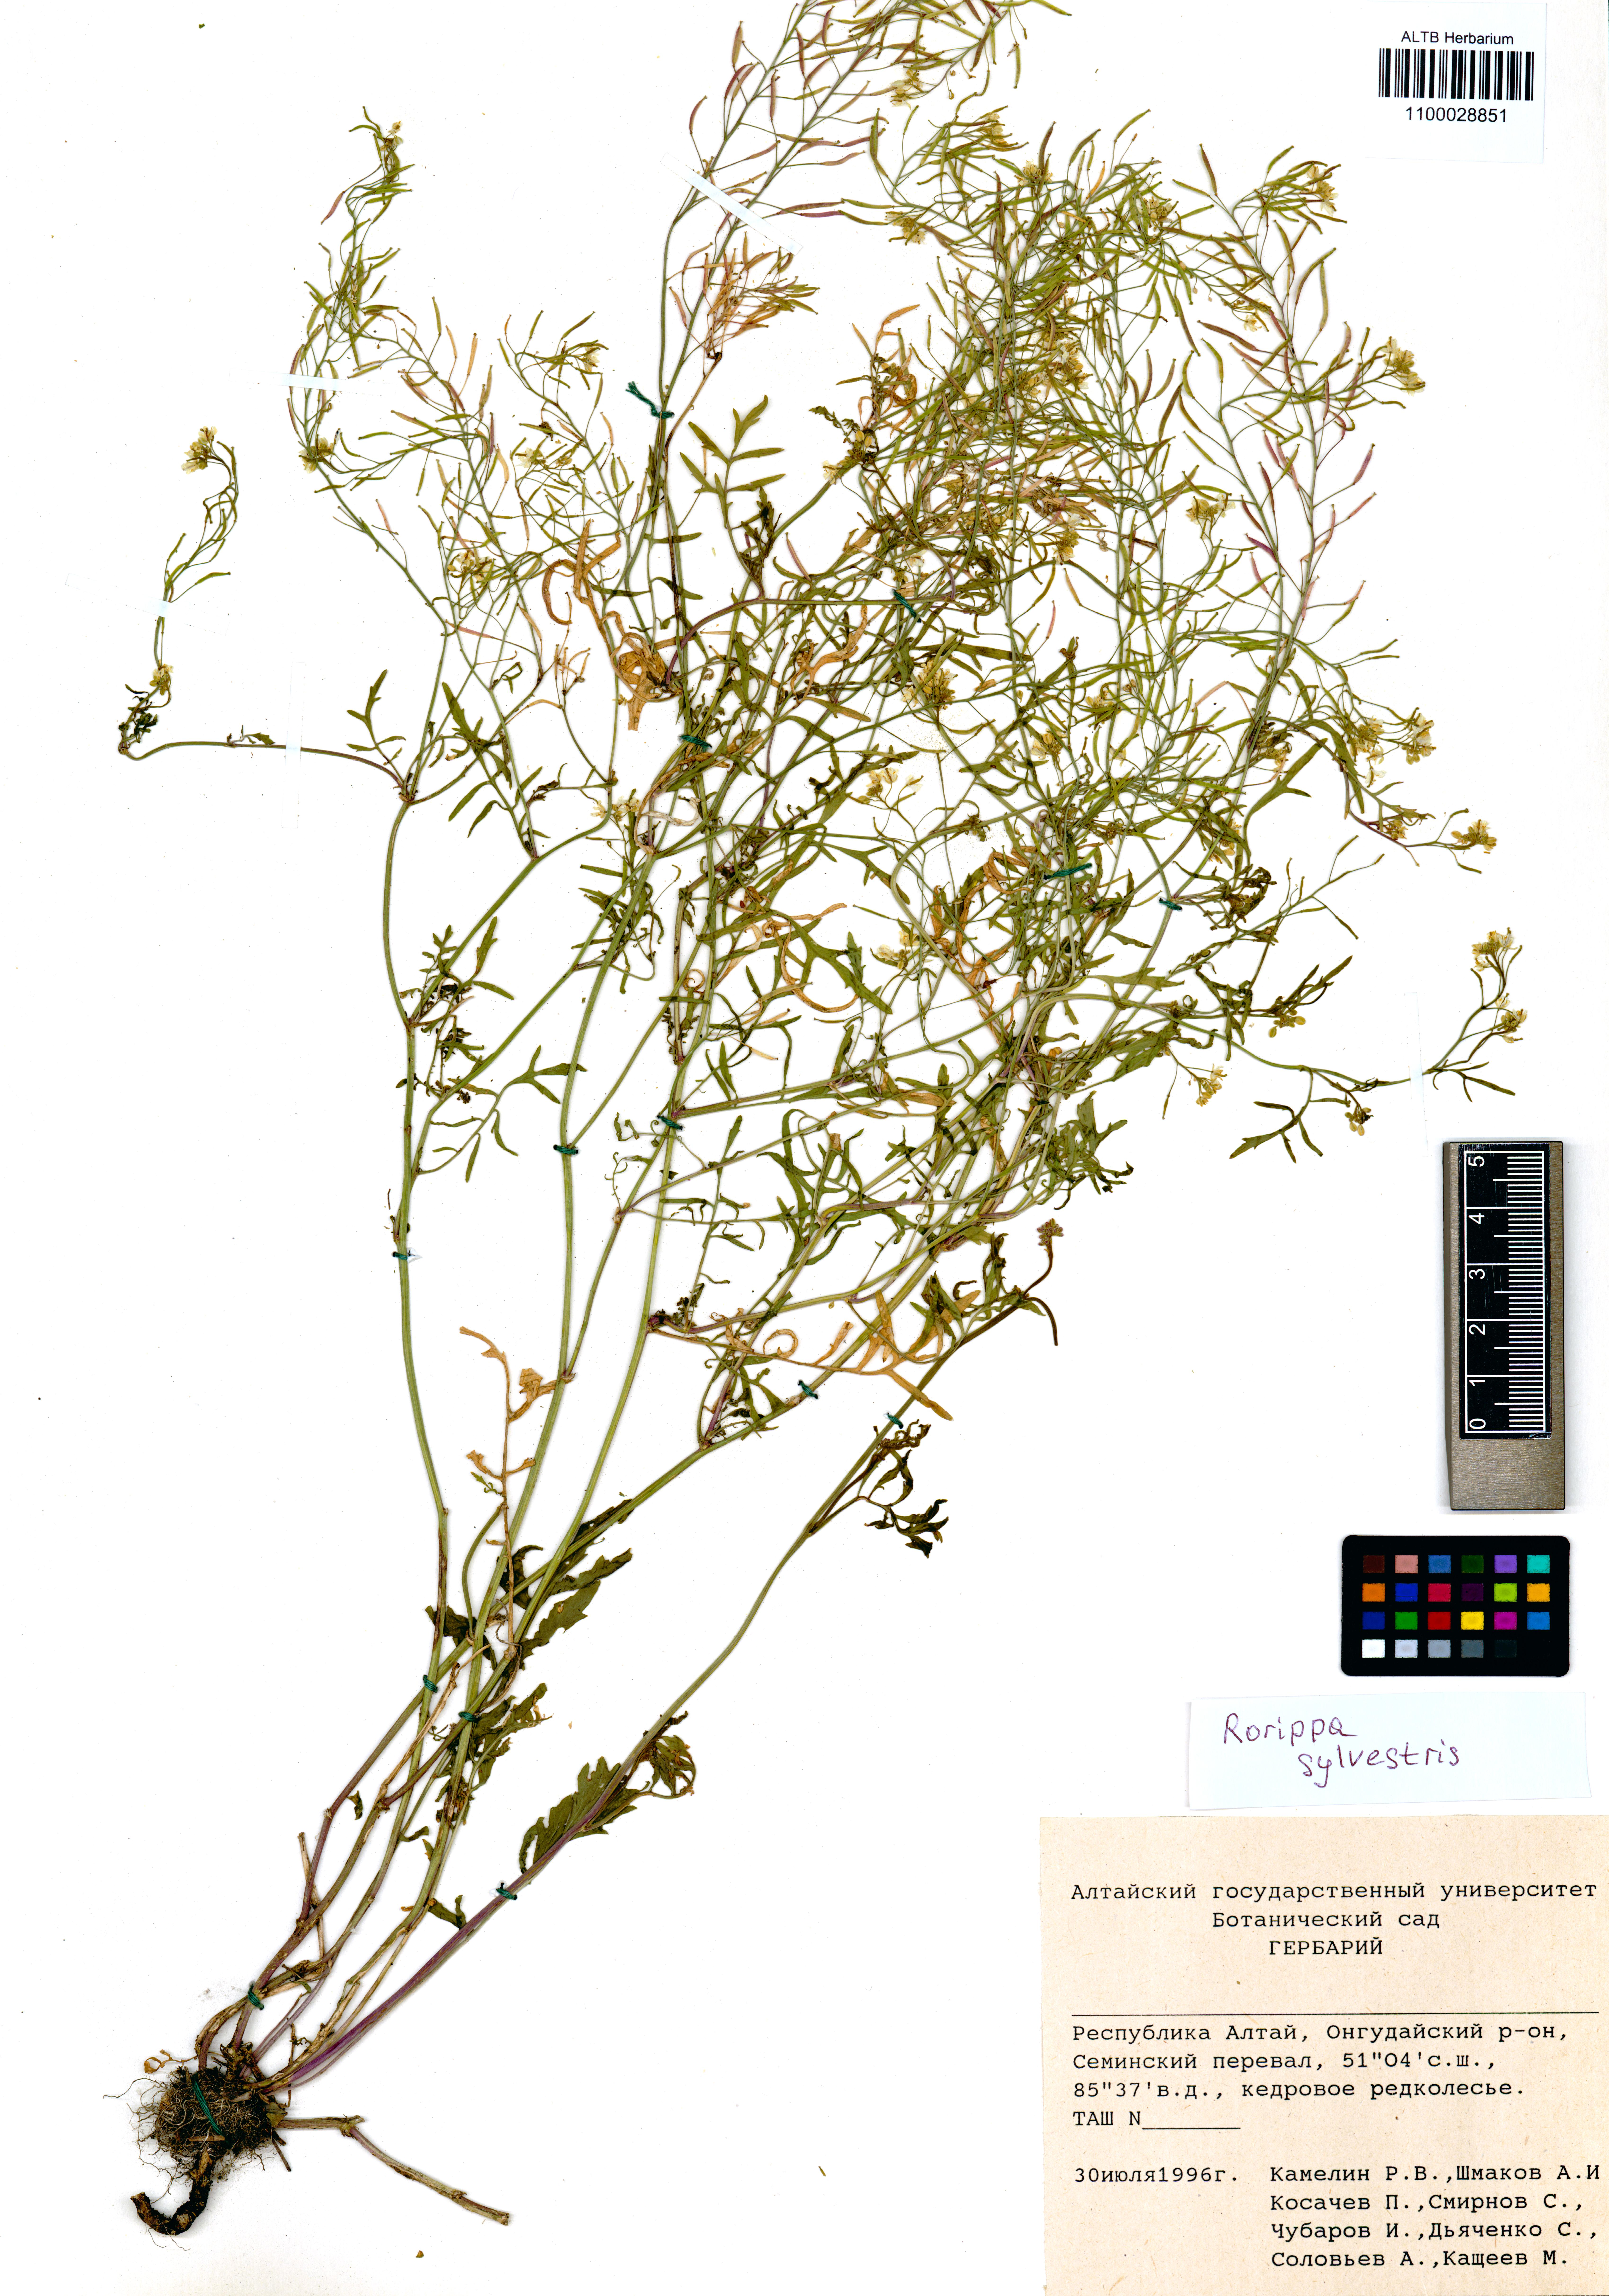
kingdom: Plantae
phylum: Tracheophyta
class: Magnoliopsida
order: Brassicales
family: Brassicaceae
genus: Rorippa
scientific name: Rorippa sylvestris
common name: Creeping yellowcress
